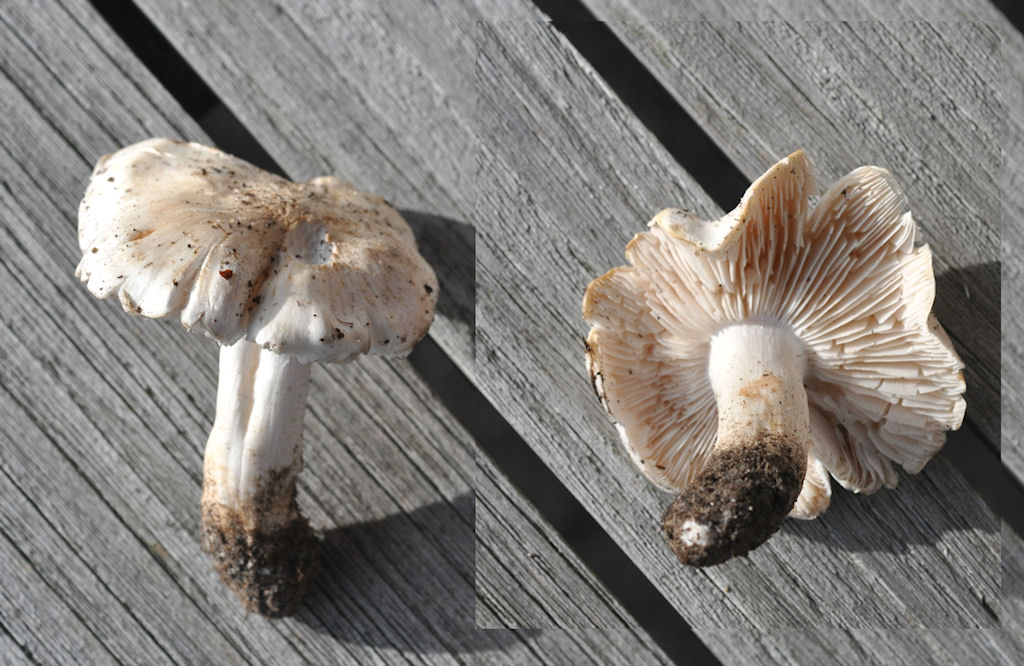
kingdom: Fungi
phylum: Basidiomycota
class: Agaricomycetes
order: Agaricales
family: Tricholomataceae
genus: Tricholoma
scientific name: Tricholoma columbetta
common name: silke-ridderhat
